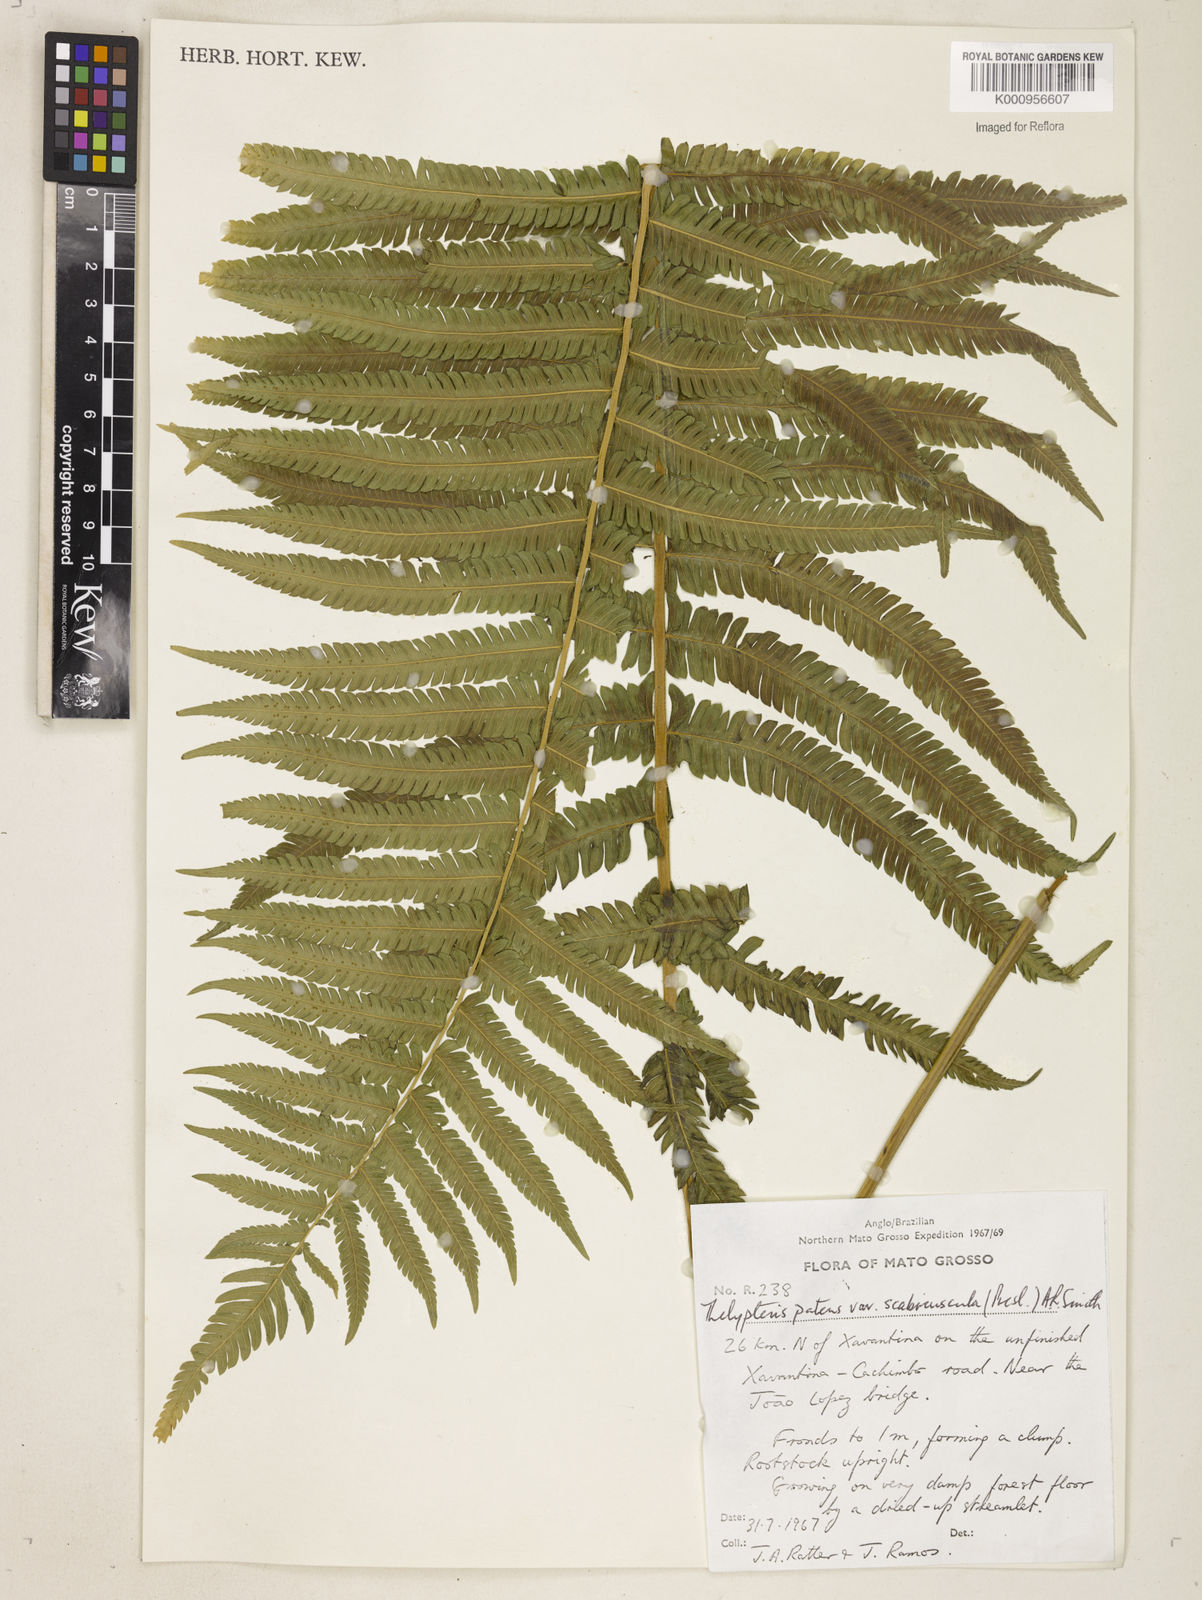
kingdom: Plantae
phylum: Tracheophyta
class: Polypodiopsida
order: Polypodiales
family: Thelypteridaceae
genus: Pelazoneuron
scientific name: Pelazoneuron patens
